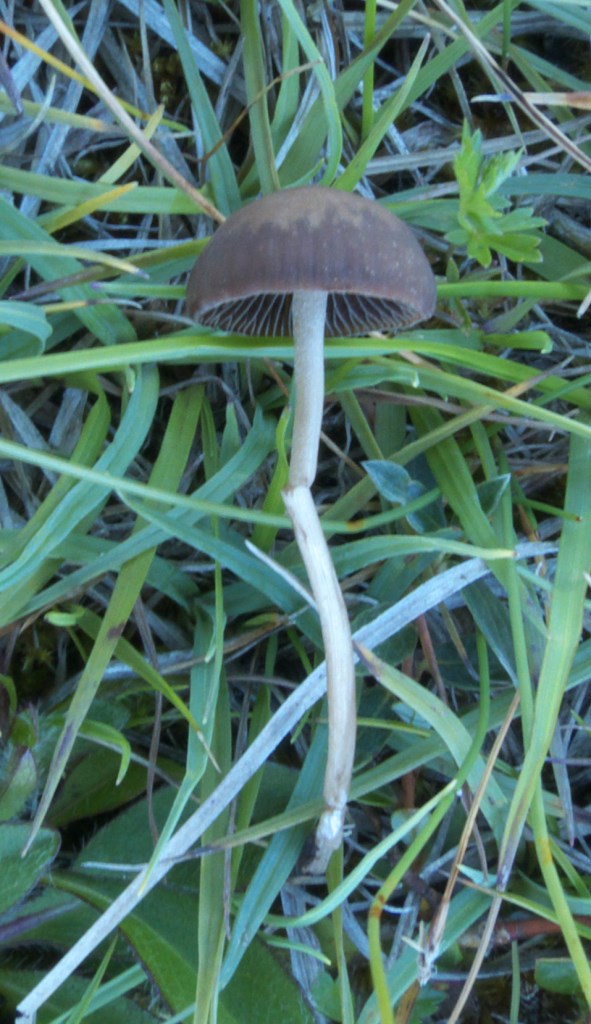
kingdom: Fungi
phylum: Basidiomycota
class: Agaricomycetes
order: Agaricales
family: Bolbitiaceae
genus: Panaeolina
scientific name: Panaeolina foenisecii
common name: høslætsvamp
